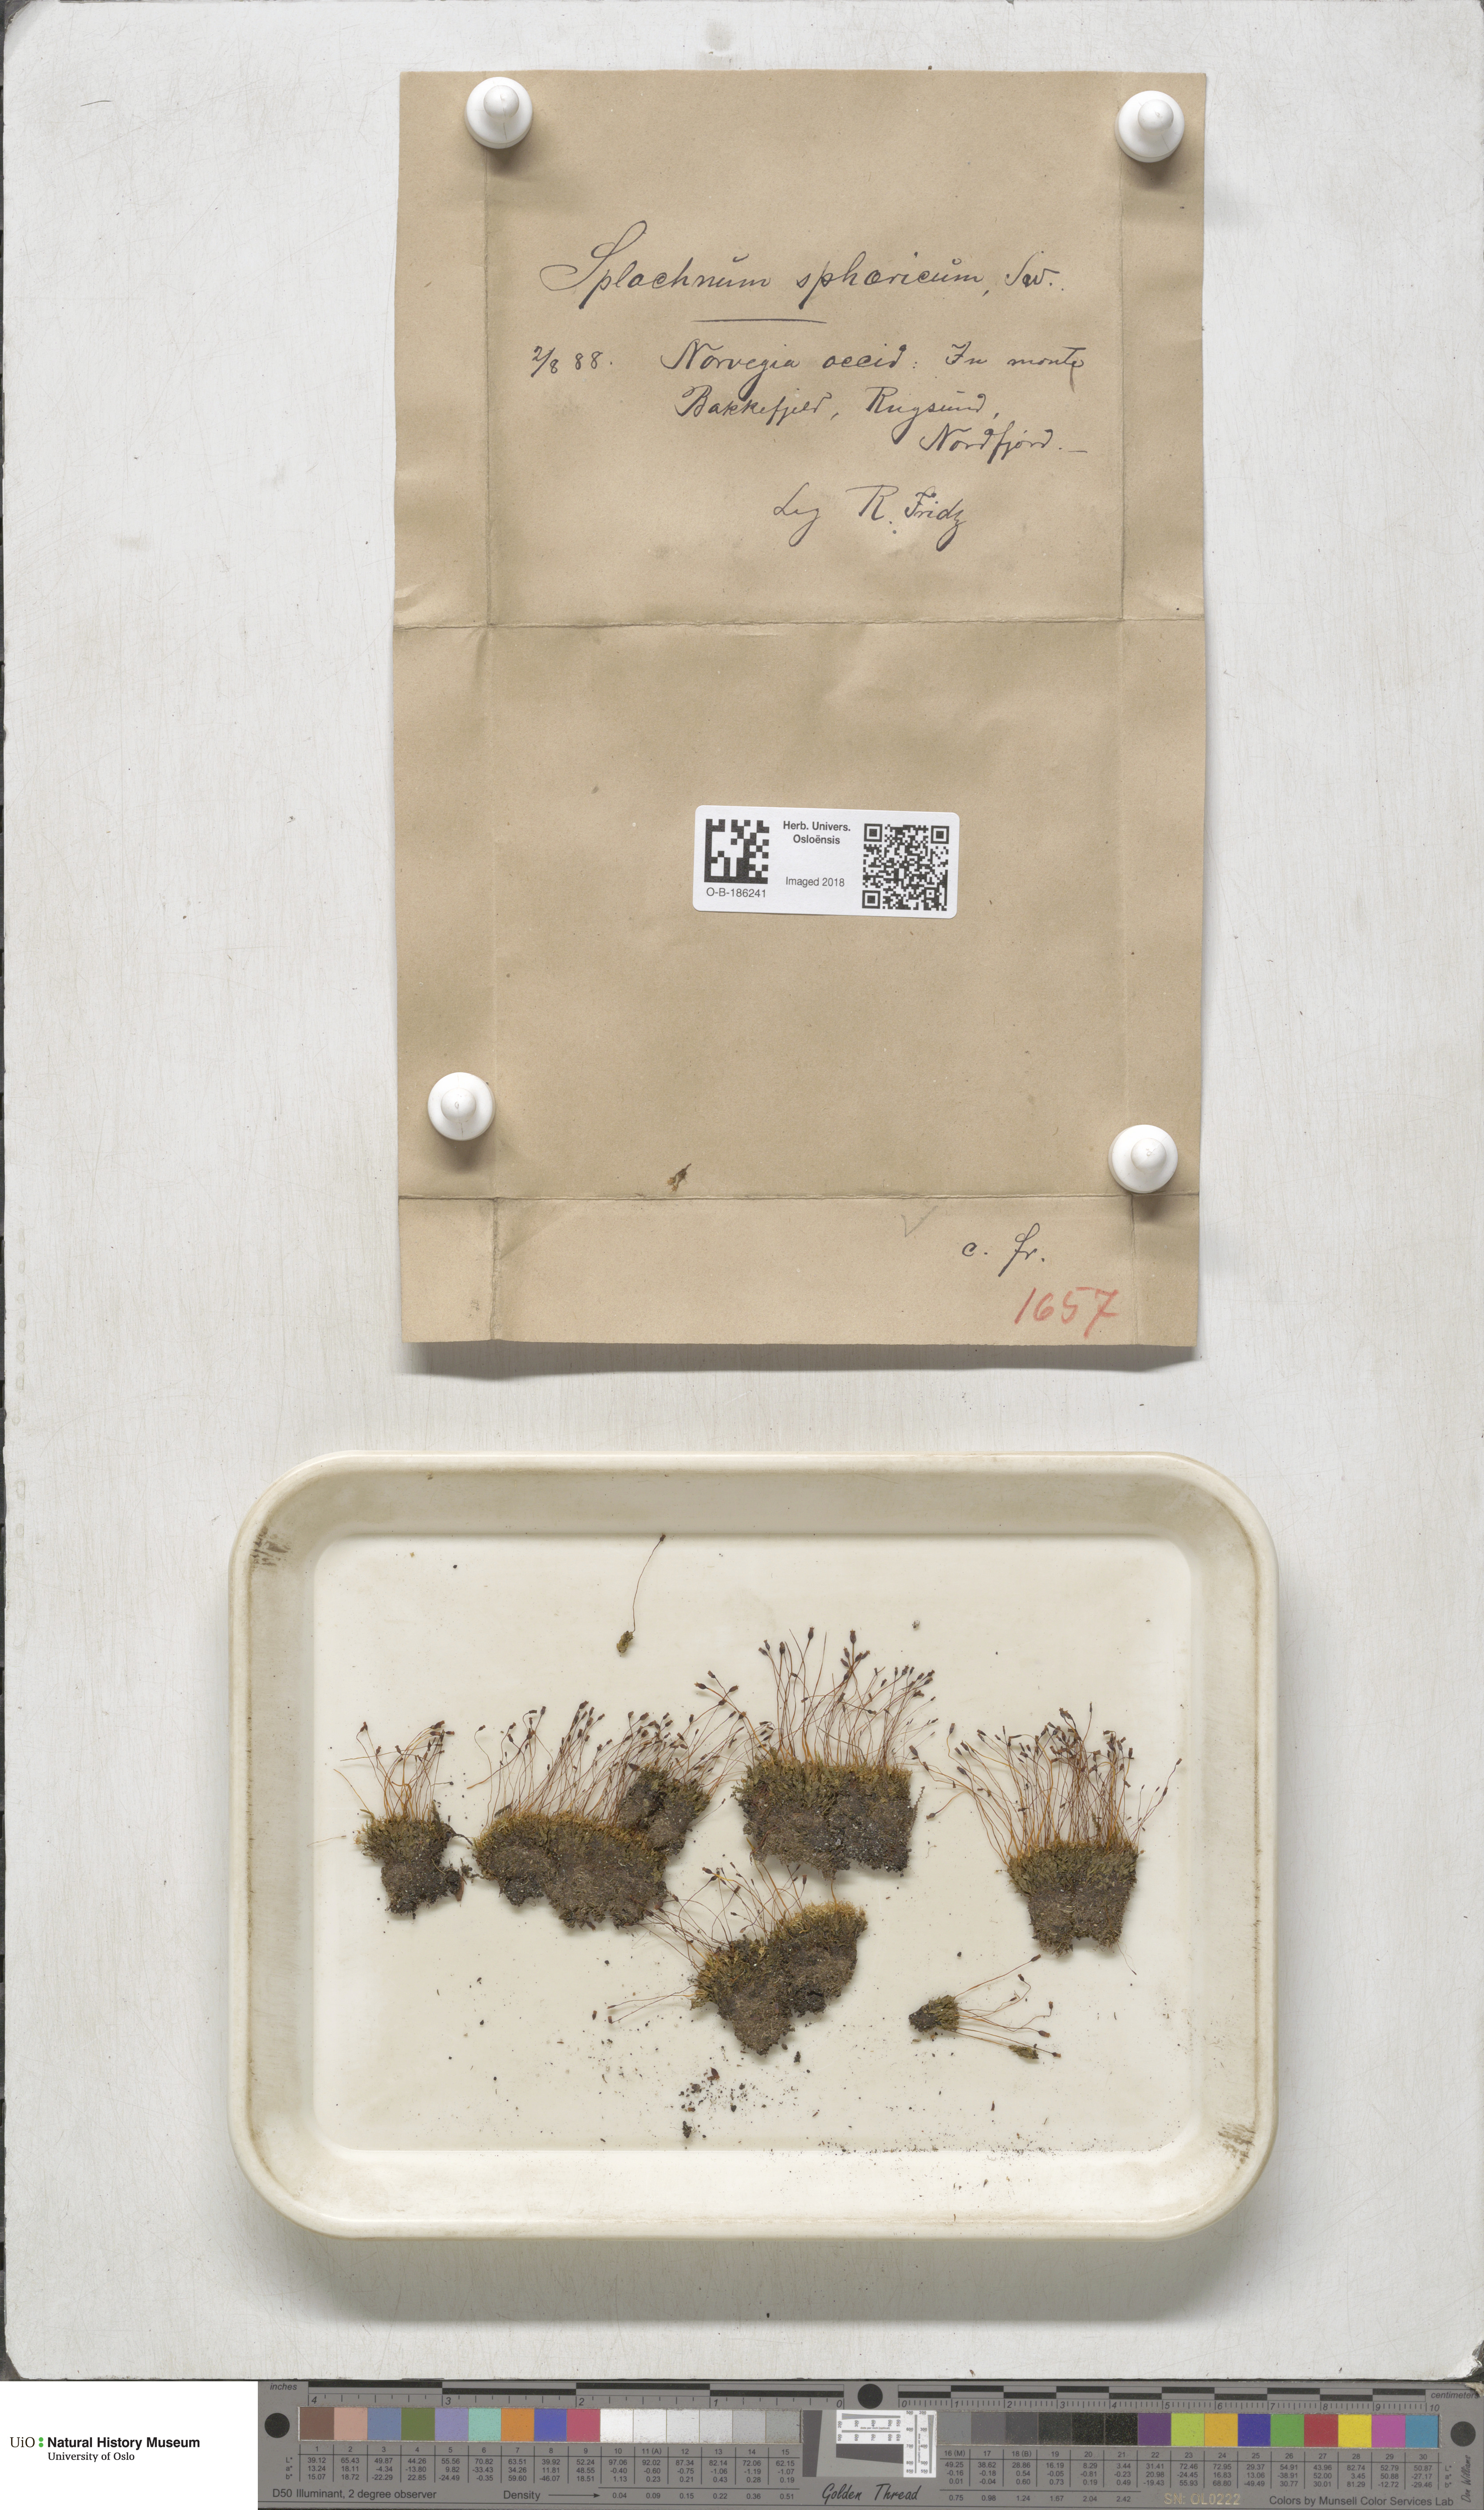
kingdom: Plantae
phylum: Bryophyta
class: Bryopsida
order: Splachnales
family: Splachnaceae
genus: Splachnum
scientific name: Splachnum sphaericum
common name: Round-fruited dung moss
